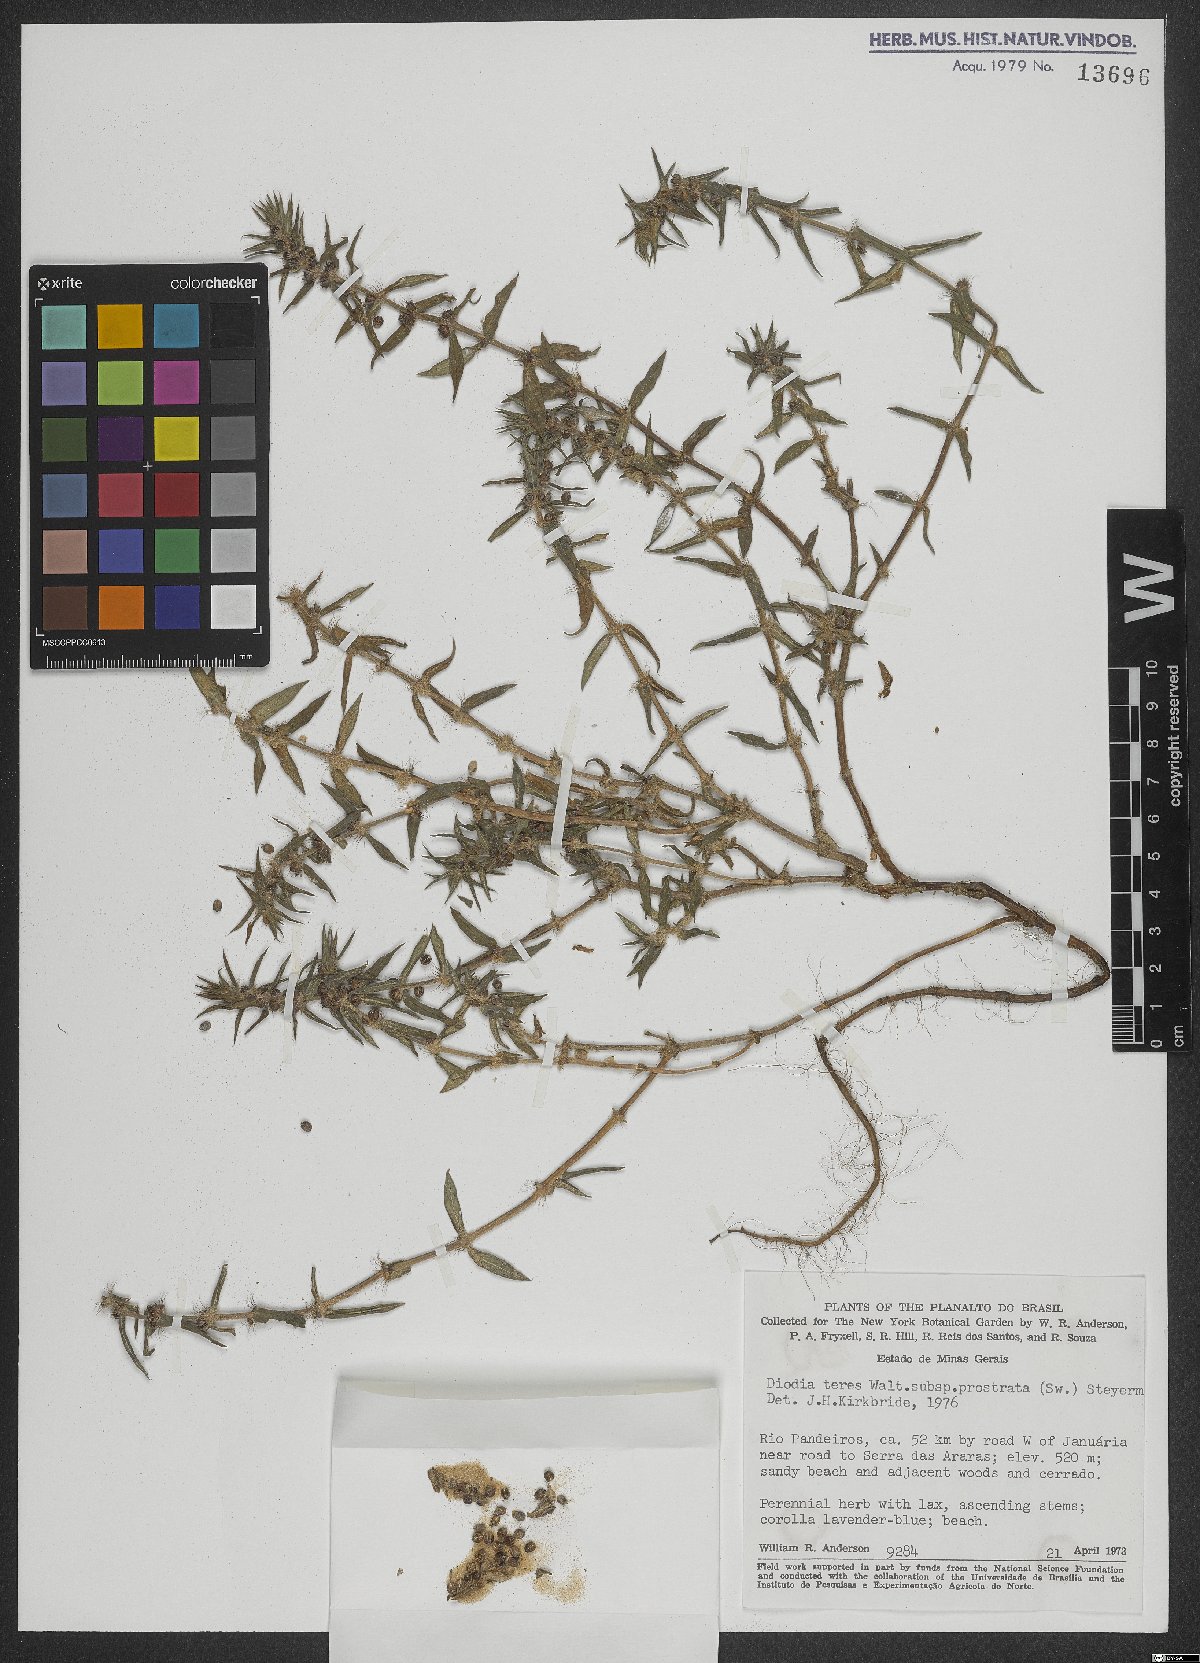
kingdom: Plantae
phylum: Tracheophyta
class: Magnoliopsida
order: Gentianales
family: Rubiaceae
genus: Hexasepalum
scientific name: Hexasepalum teres
